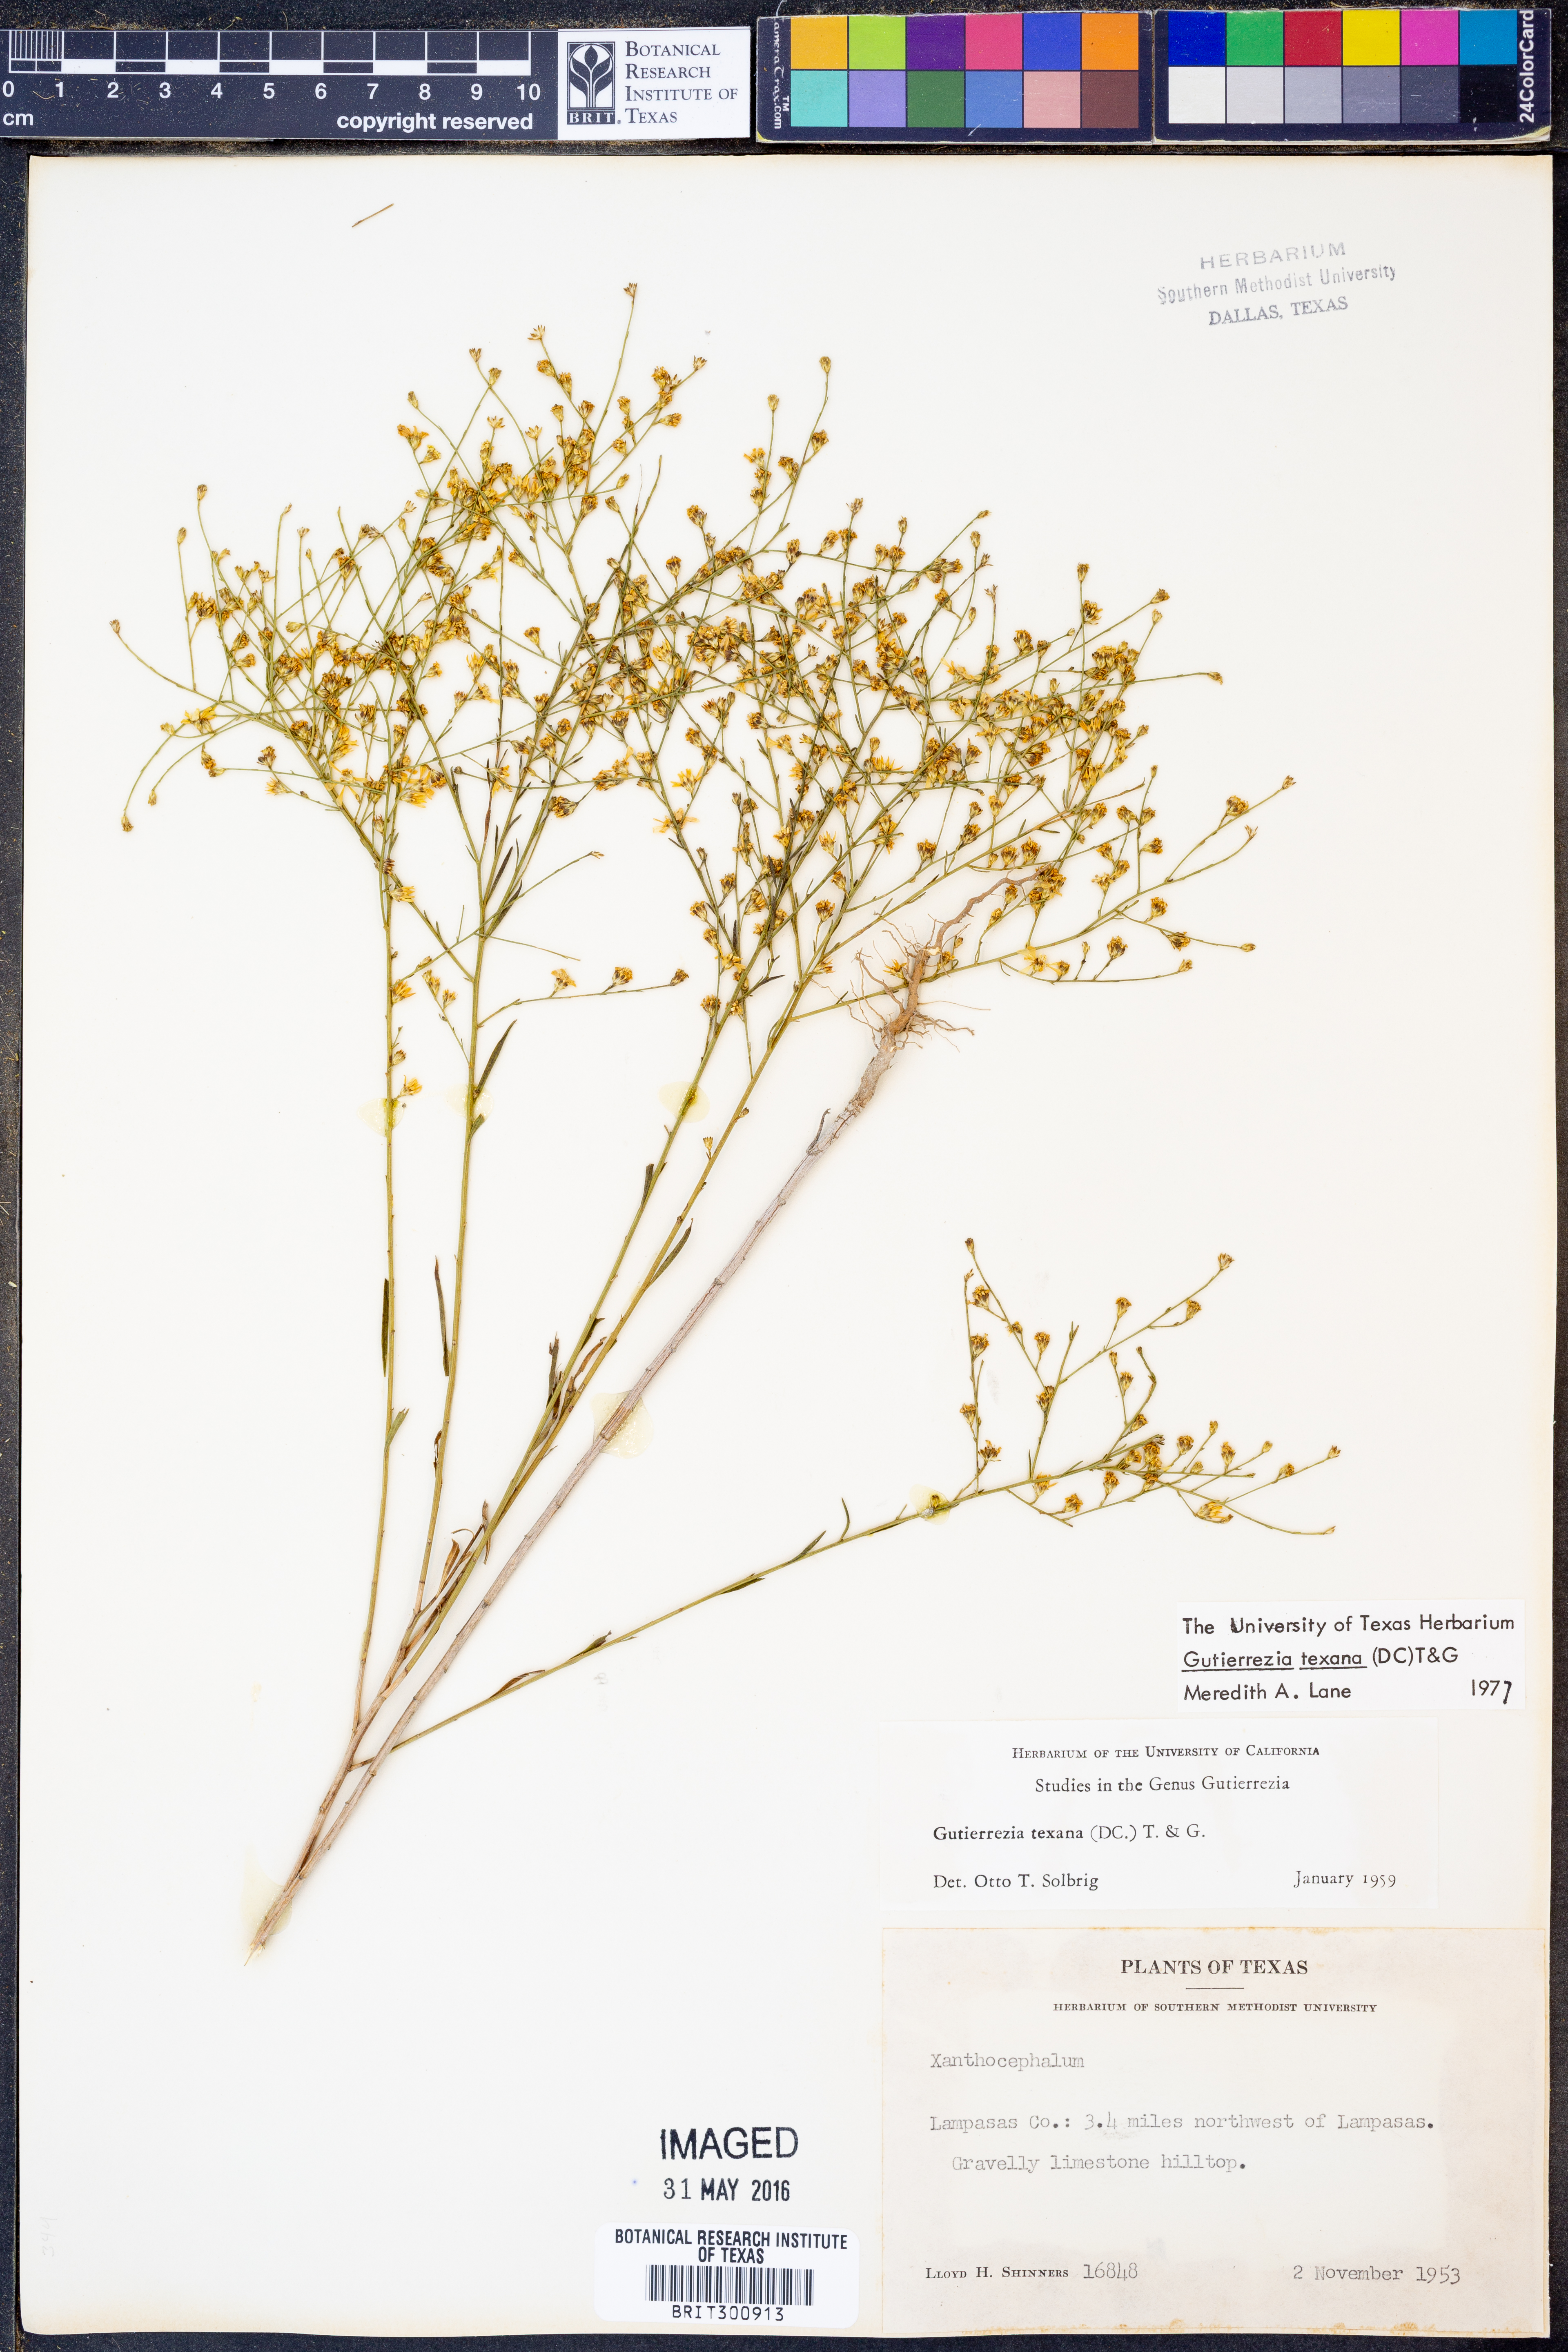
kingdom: Plantae
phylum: Tracheophyta
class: Magnoliopsida
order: Asterales
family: Asteraceae
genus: Gutierrezia
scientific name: Gutierrezia texana
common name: Texas snakeweed
